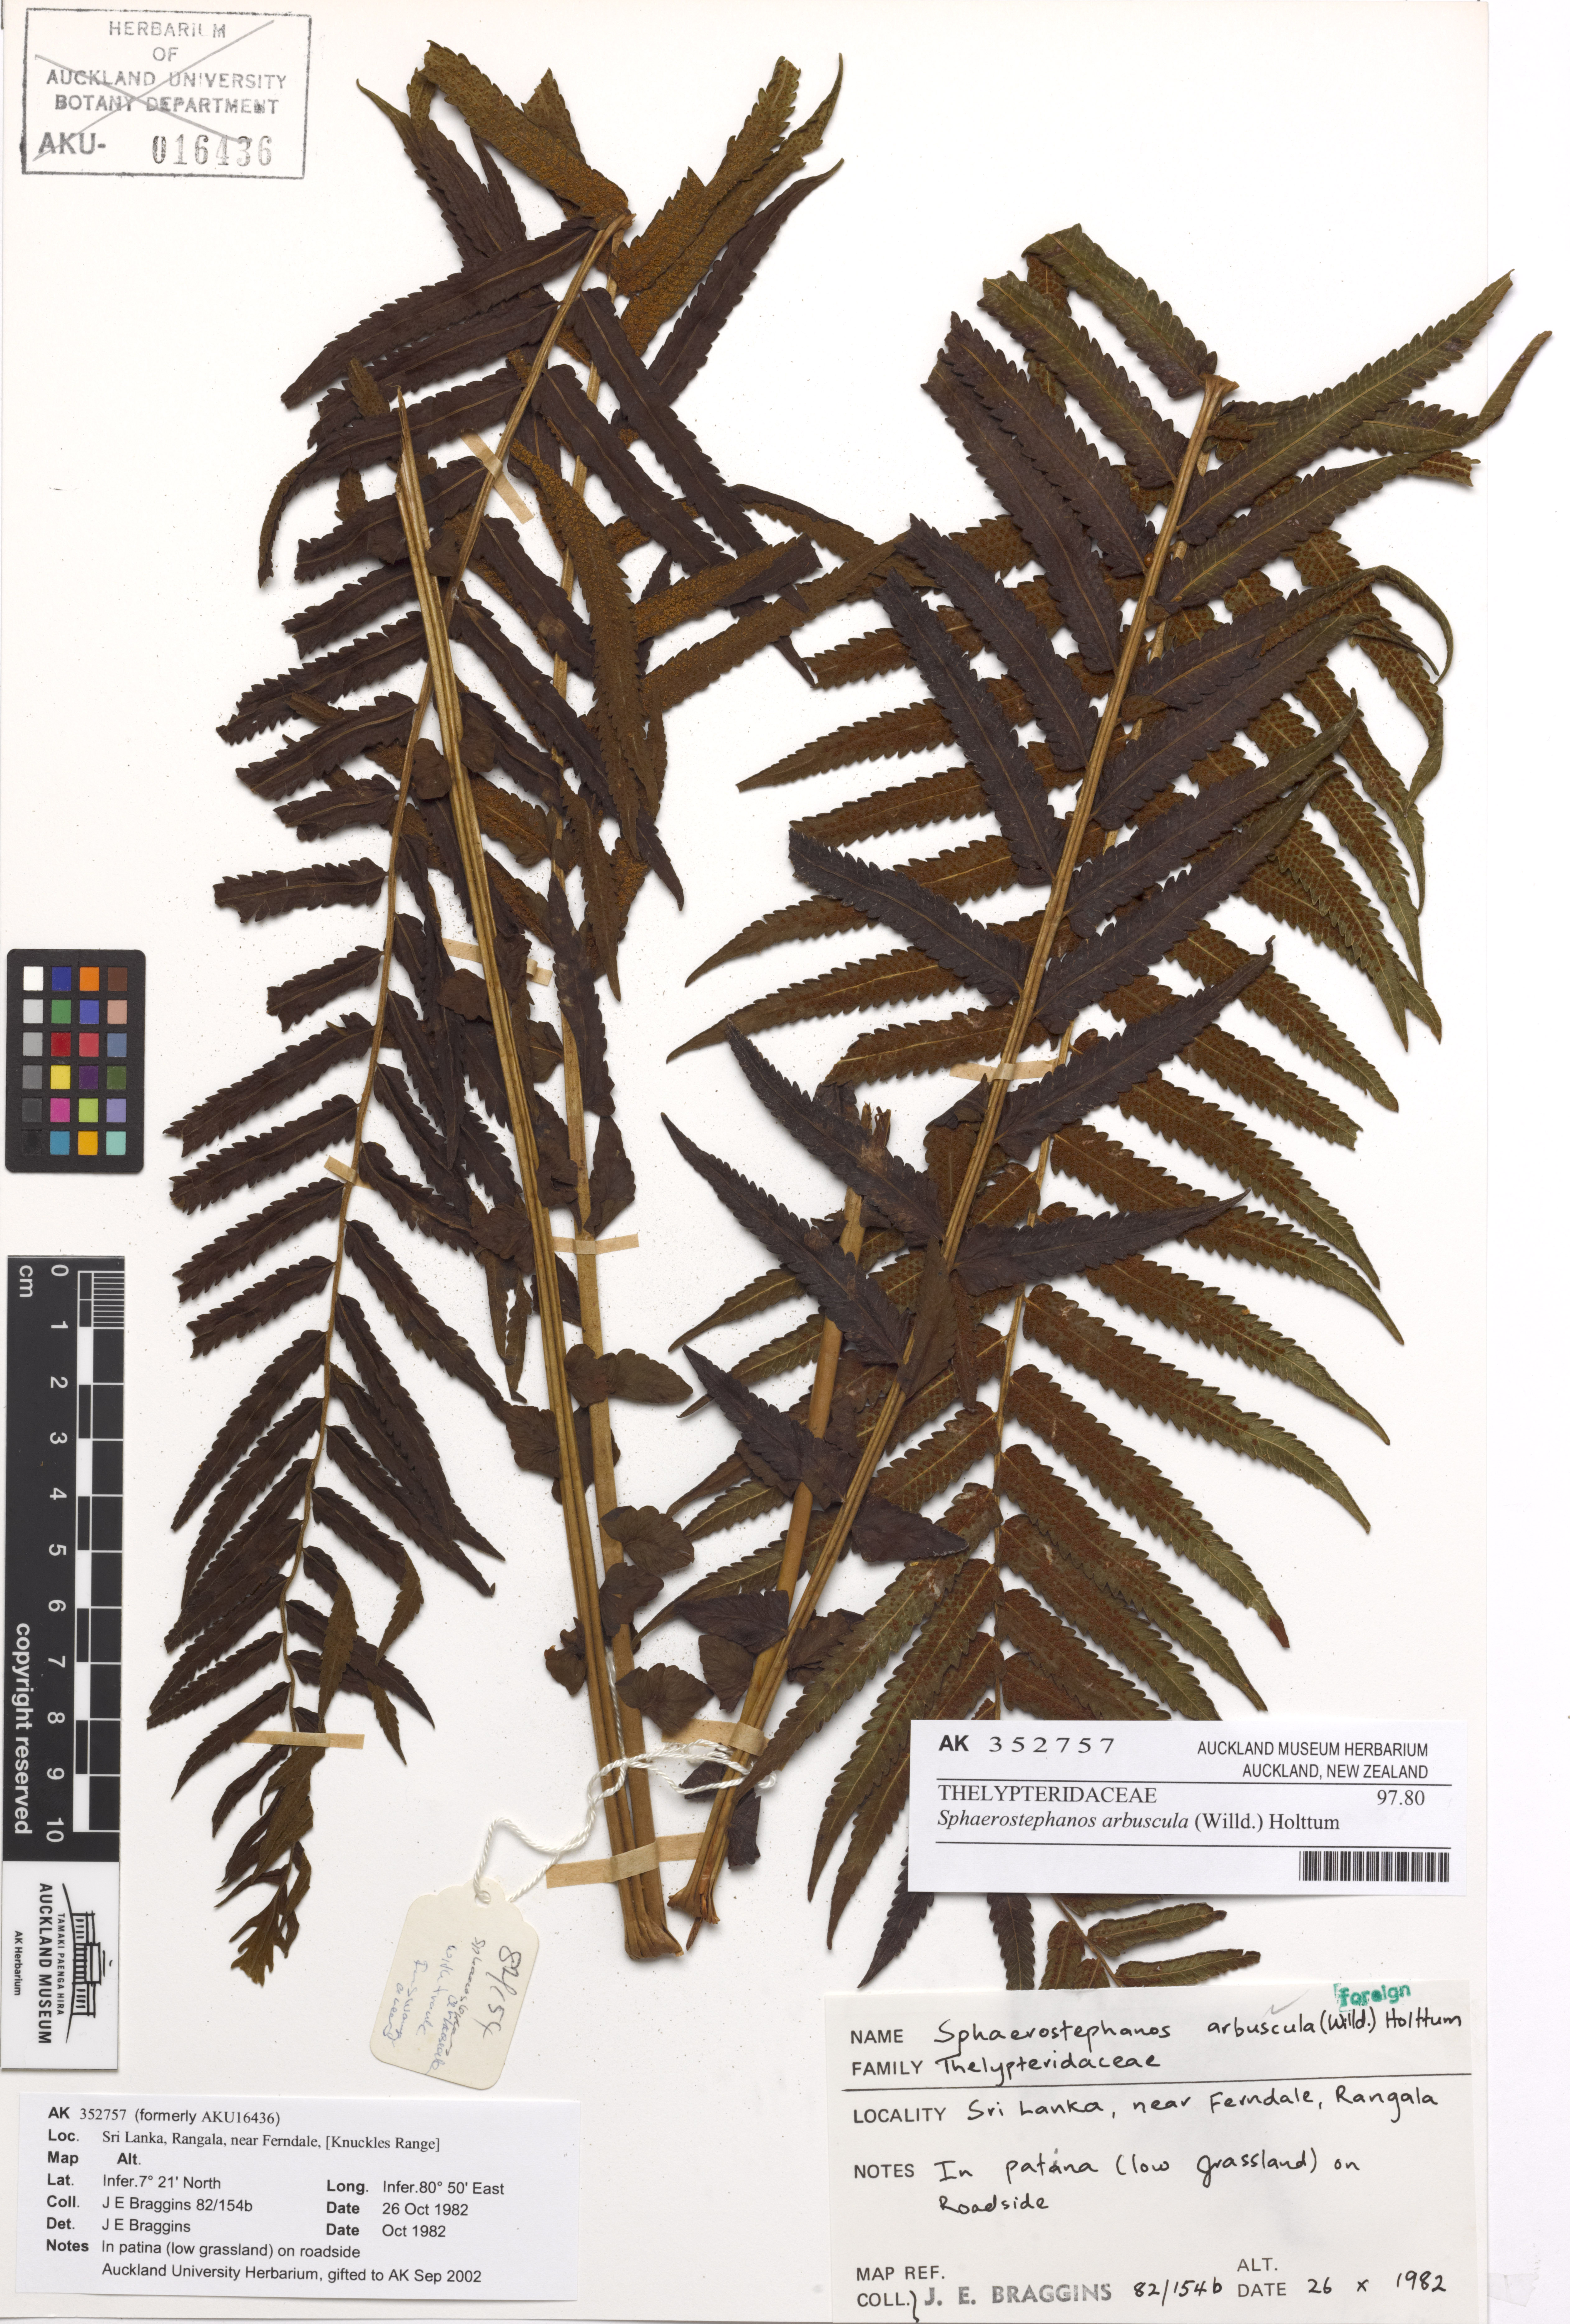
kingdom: Plantae
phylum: Tracheophyta
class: Polypodiopsida
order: Polypodiales
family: Thelypteridaceae
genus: Sphaerostephanos
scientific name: Sphaerostephanos arbusculus
